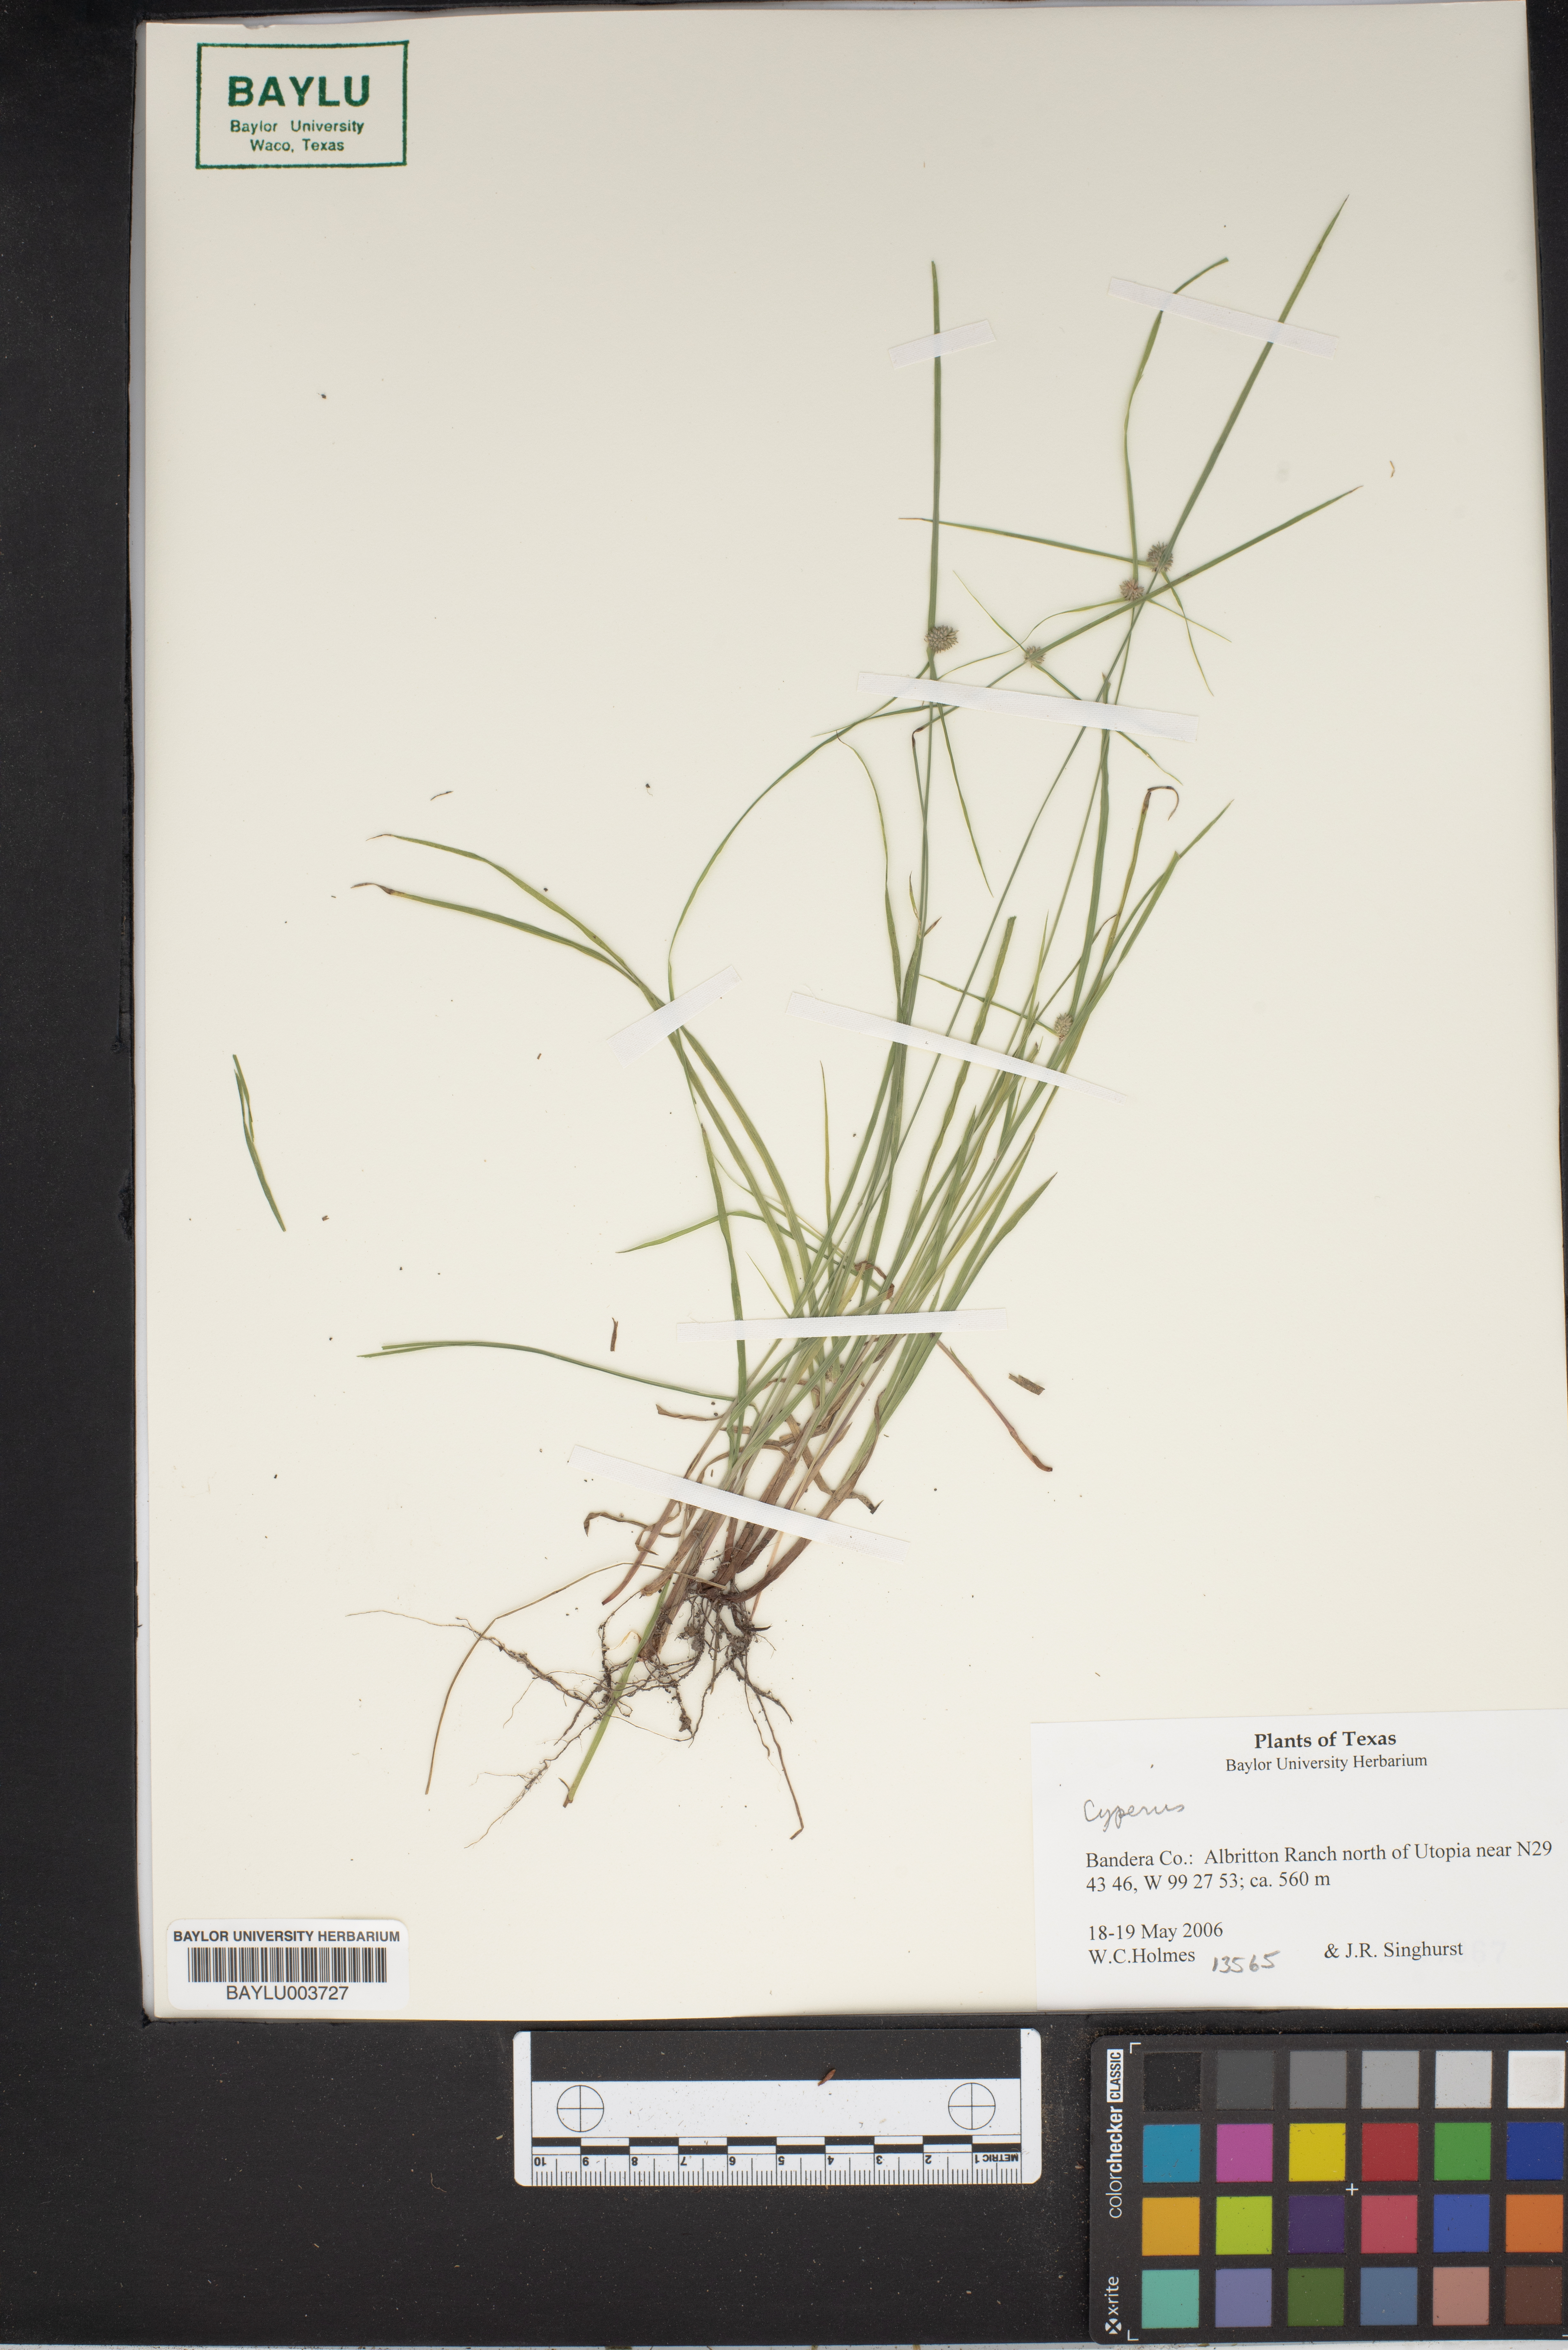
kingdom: Plantae
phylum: Tracheophyta
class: Liliopsida
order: Poales
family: Cyperaceae
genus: Cyperus
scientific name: Cyperus
